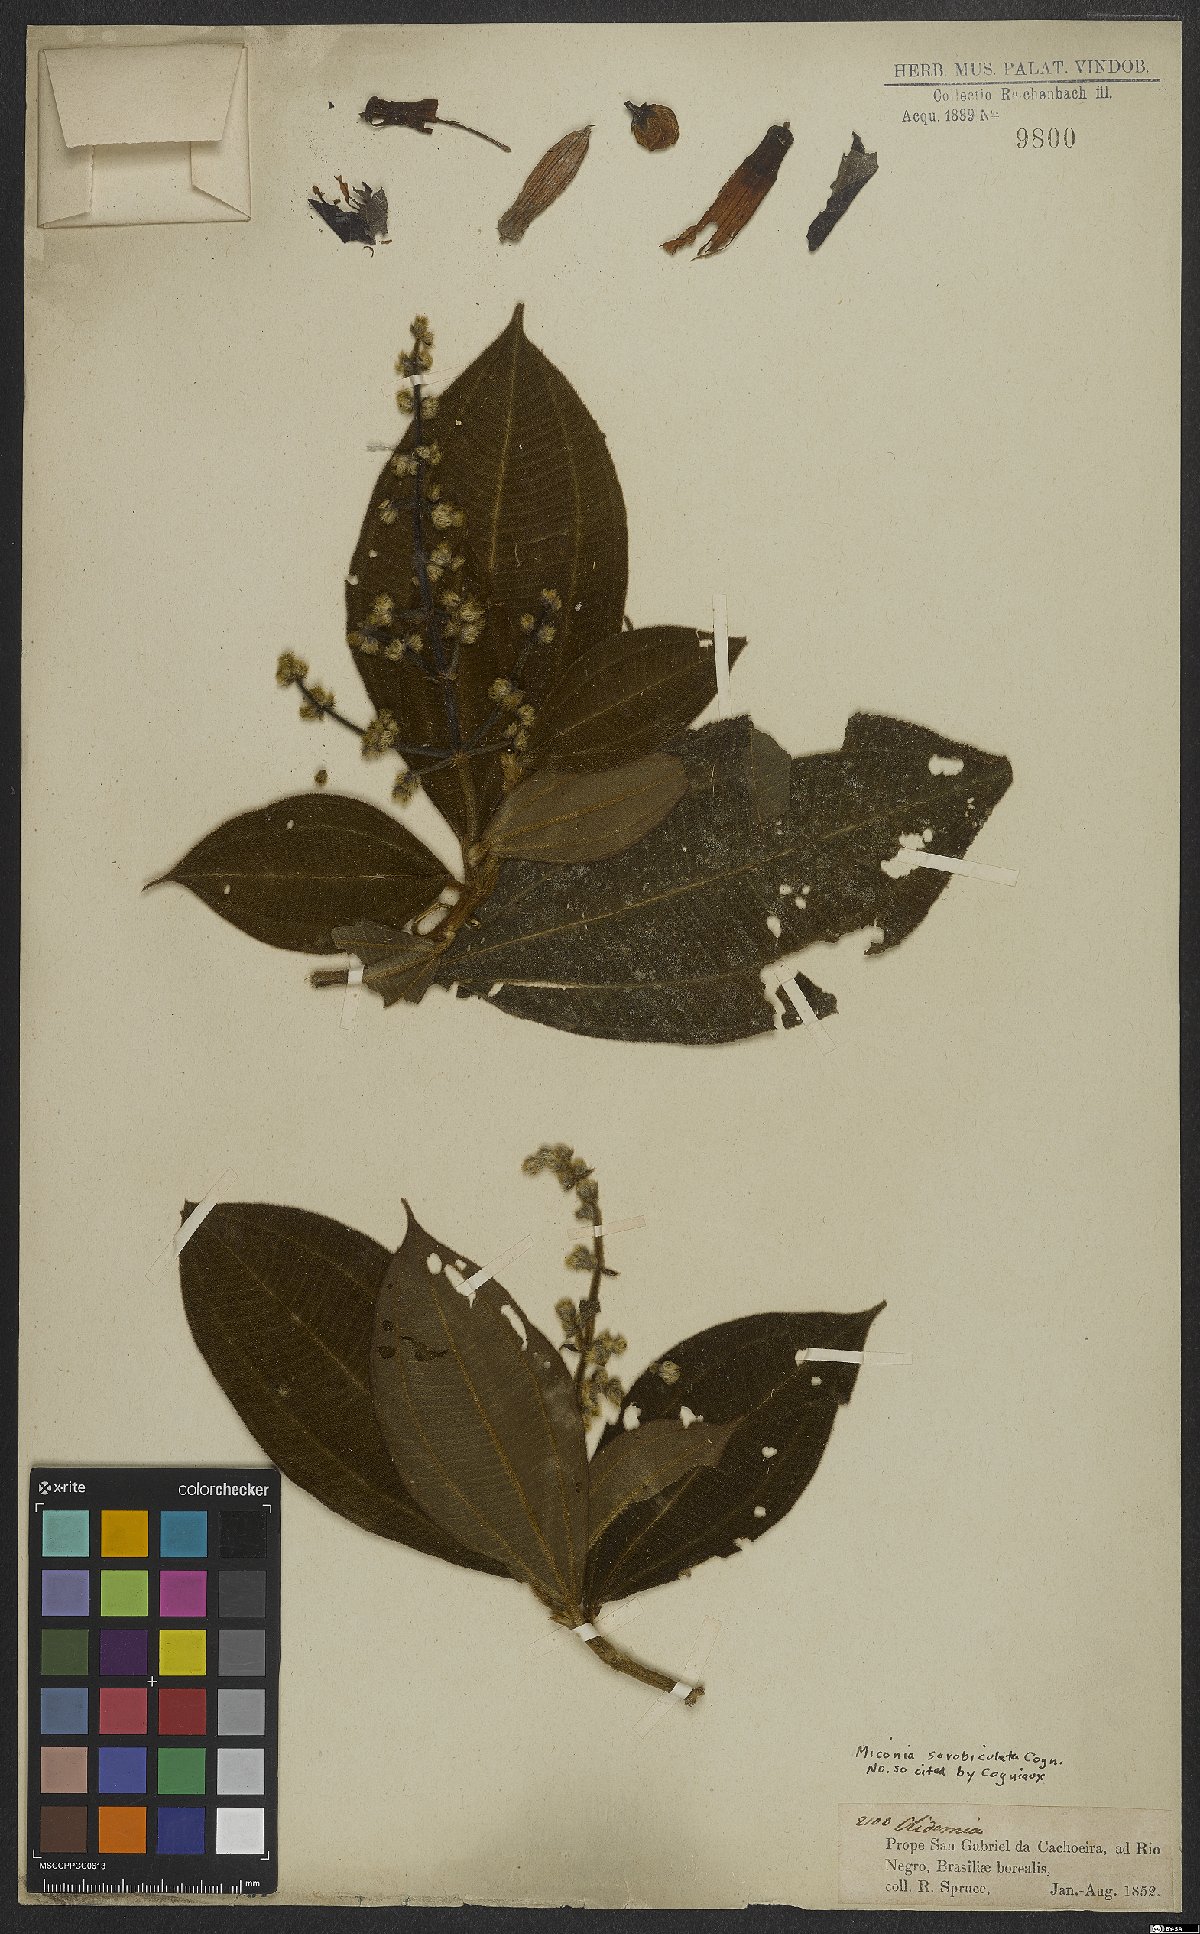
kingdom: Plantae
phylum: Tracheophyta
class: Magnoliopsida
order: Myrtales
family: Melastomataceae
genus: Miconia
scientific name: Miconia radulifolia
